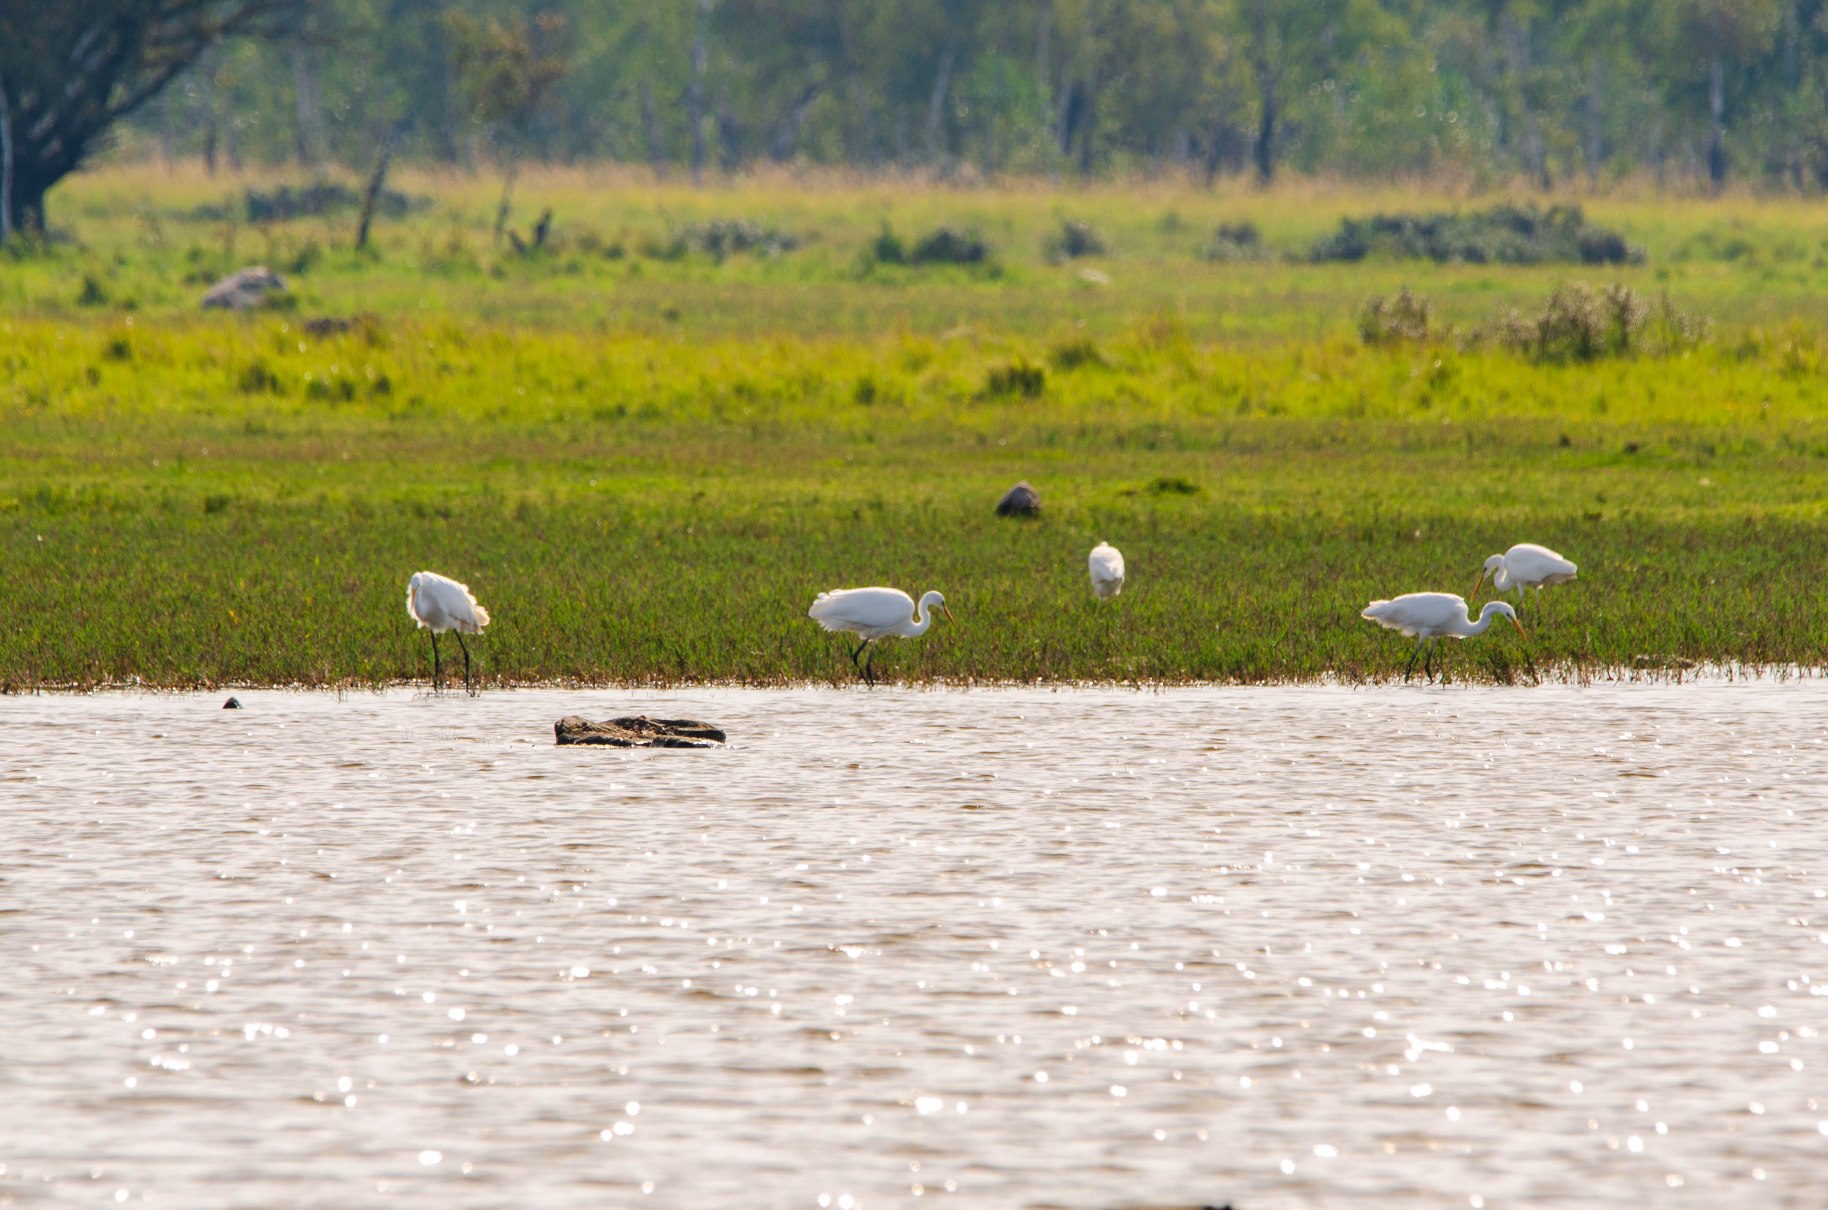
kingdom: Animalia
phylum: Chordata
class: Aves
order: Pelecaniformes
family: Ardeidae
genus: Ardea
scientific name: Ardea alba
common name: Sølvhejre
